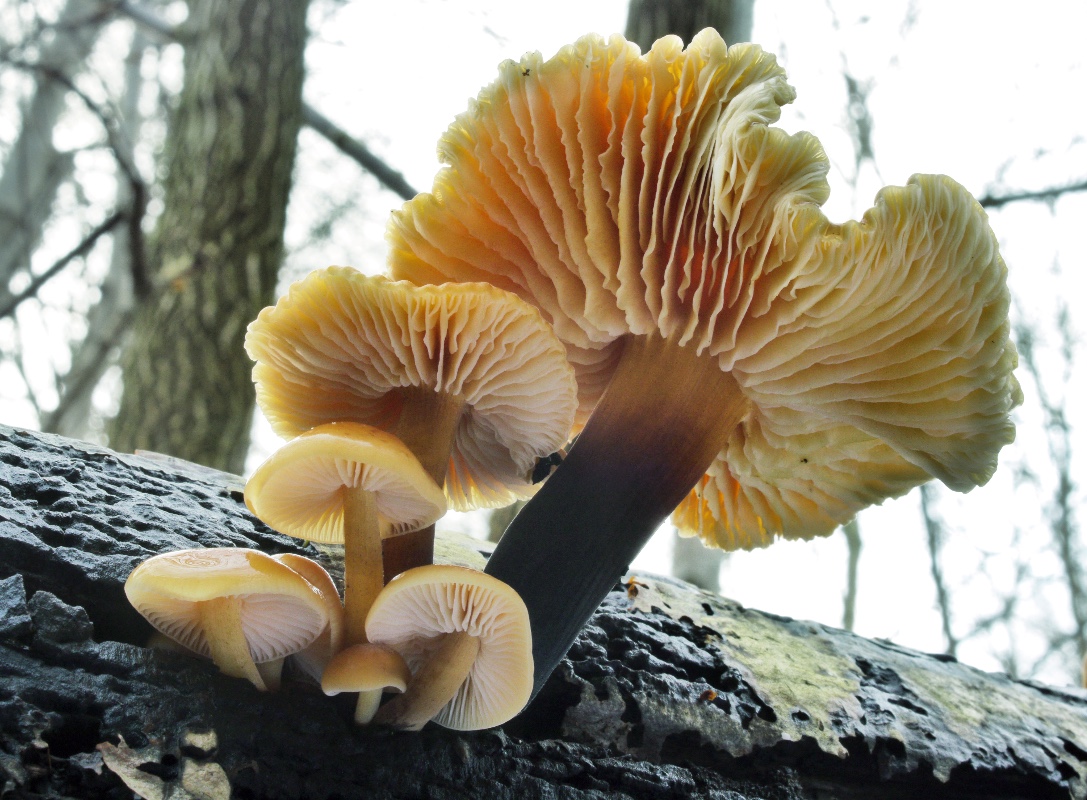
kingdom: Fungi
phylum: Basidiomycota
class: Agaricomycetes
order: Agaricales
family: Physalacriaceae
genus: Flammulina
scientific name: Flammulina velutipes
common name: gul fløjlsfod
